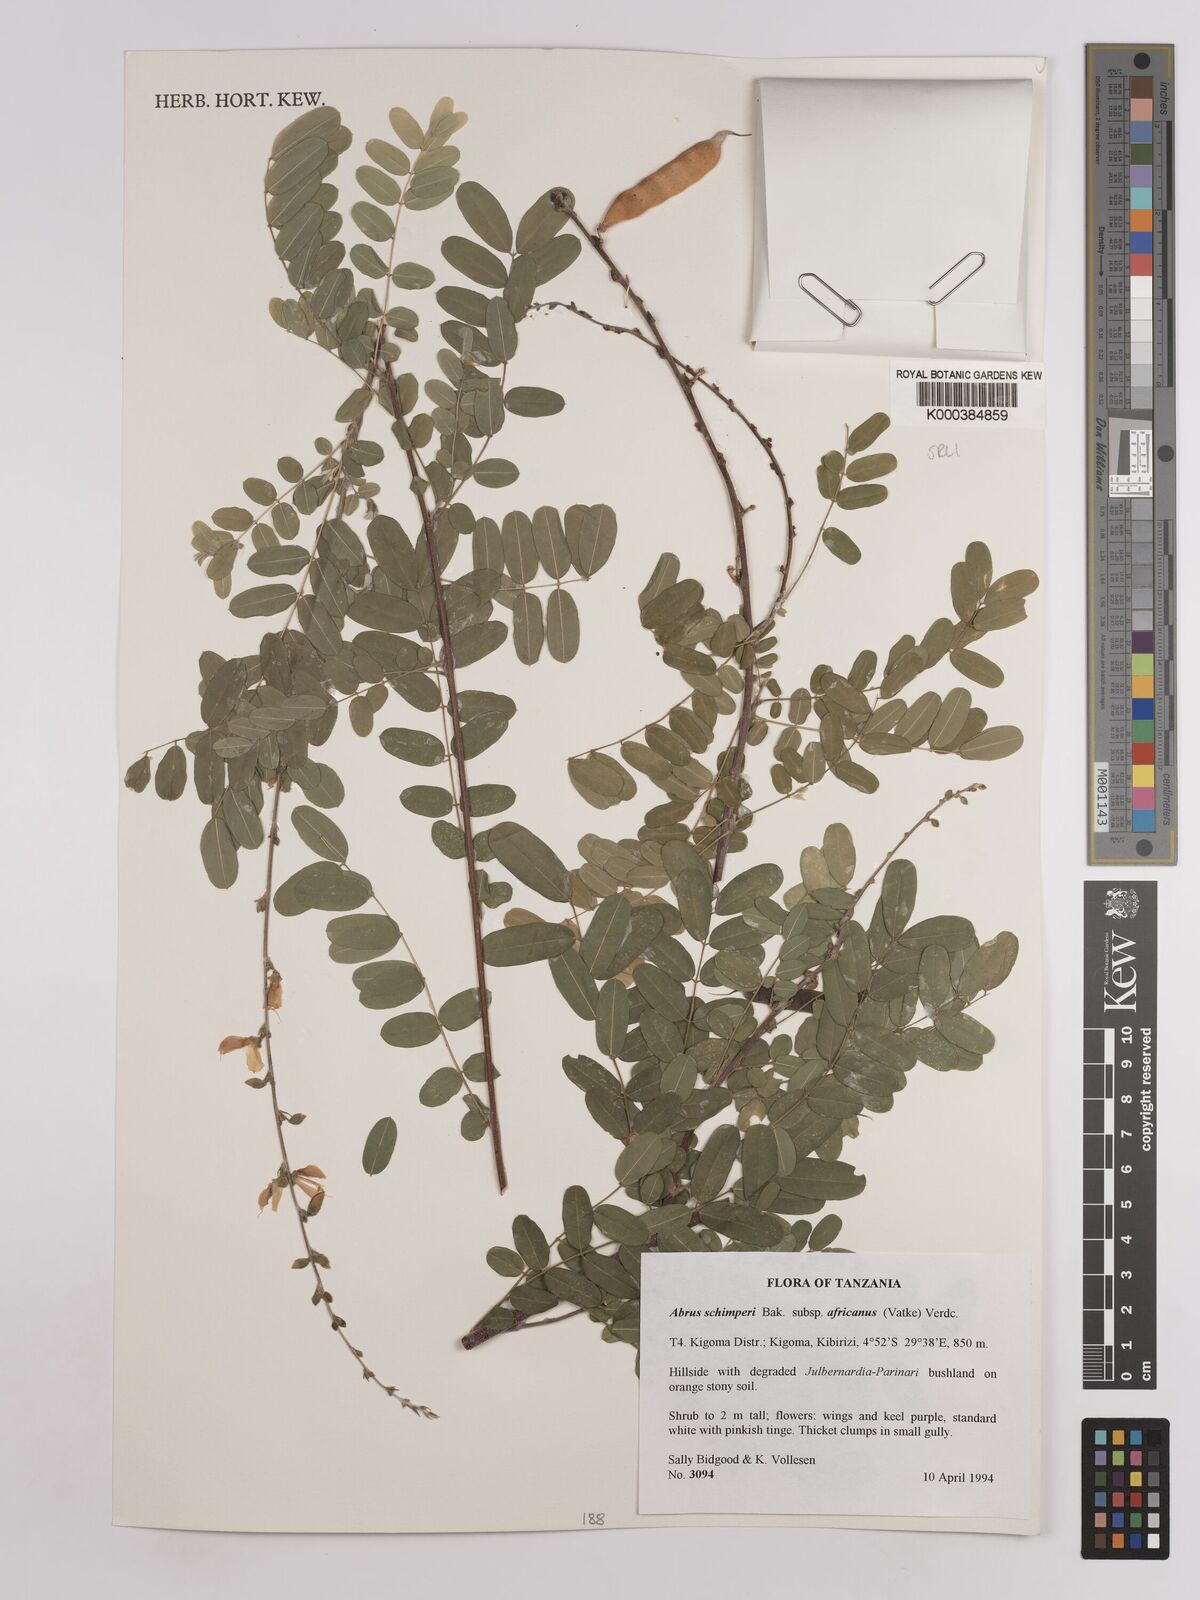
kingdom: Plantae
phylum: Tracheophyta
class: Magnoliopsida
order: Fabales
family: Fabaceae
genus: Abrus
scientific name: Abrus fruticulosus
